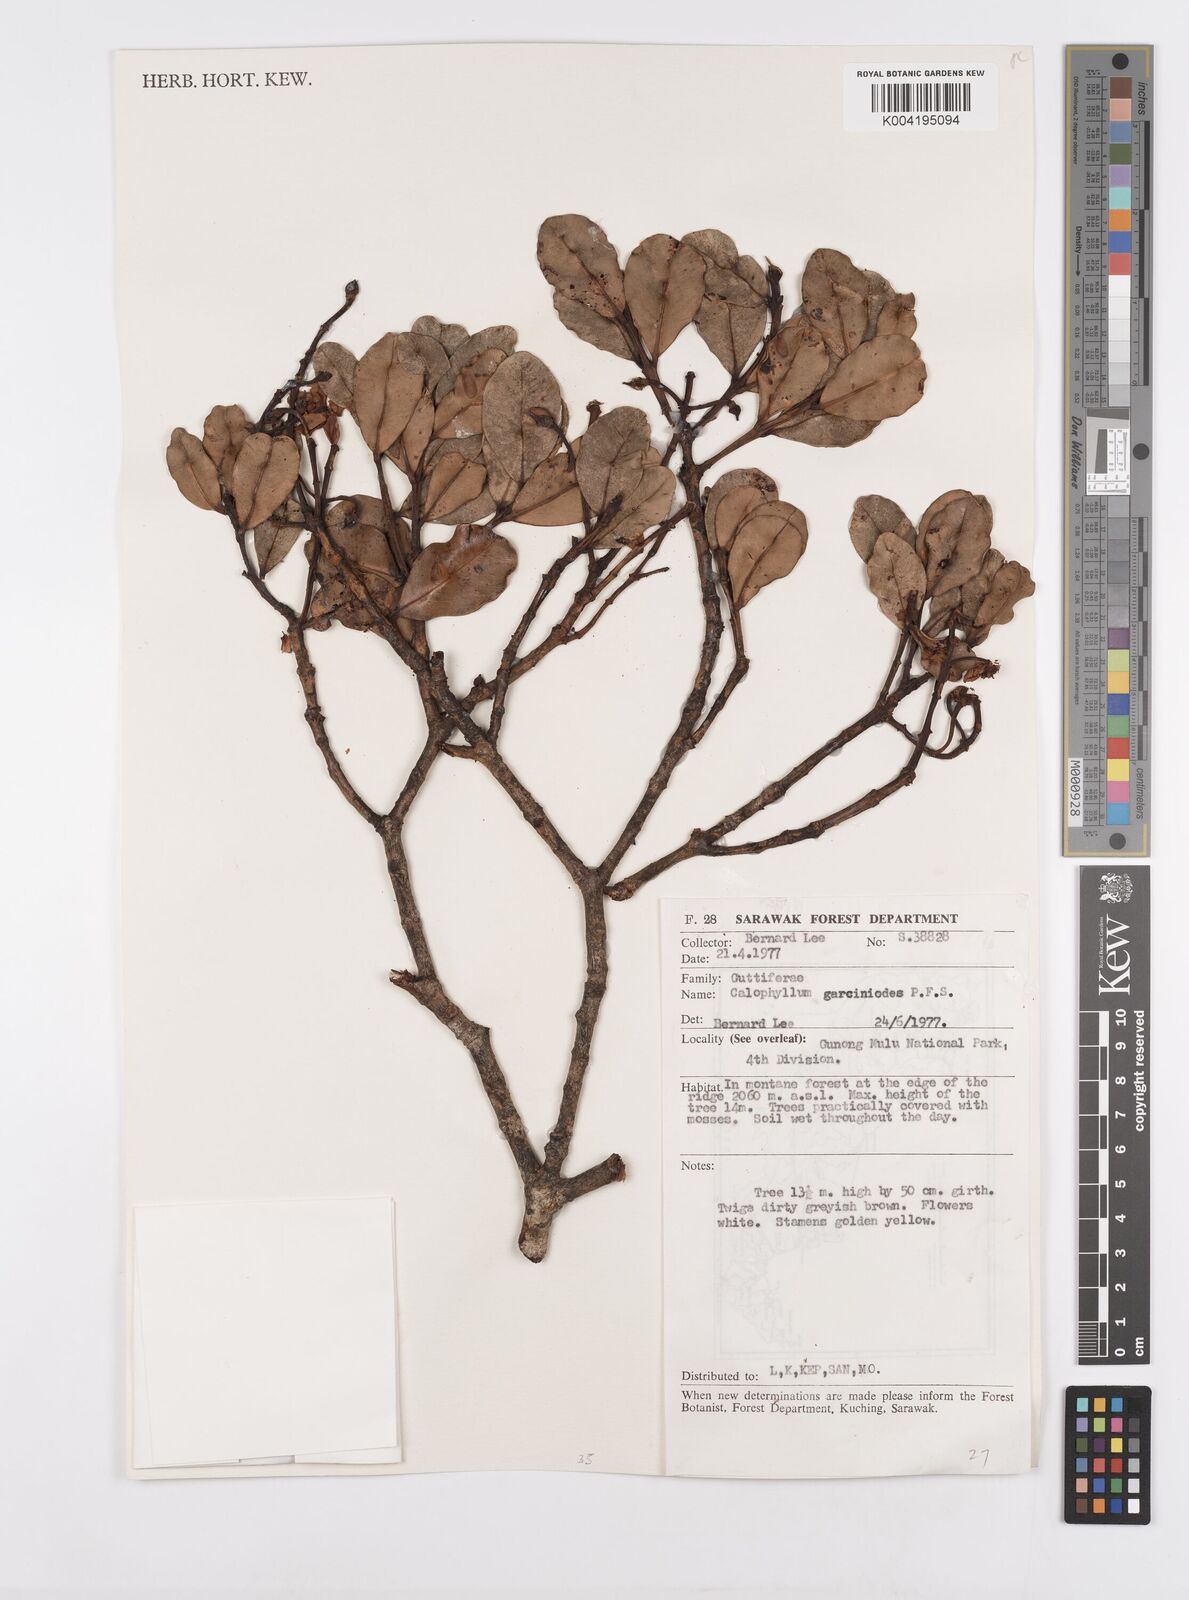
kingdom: Plantae
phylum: Tracheophyta
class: Magnoliopsida
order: Malpighiales
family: Calophyllaceae
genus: Calophyllum
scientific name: Calophyllum garcinioides
